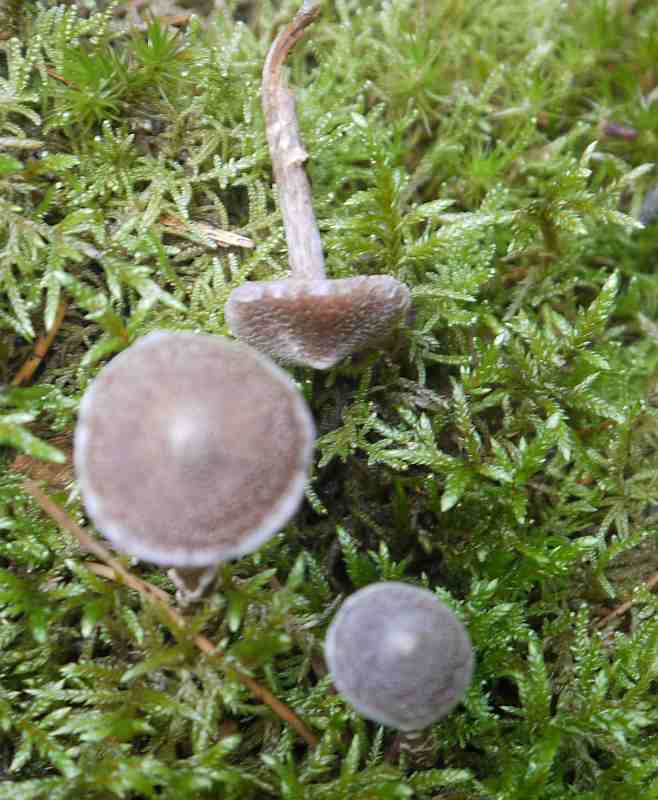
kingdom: Fungi
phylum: Basidiomycota
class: Agaricomycetes
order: Agaricales
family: Cortinariaceae
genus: Cortinarius
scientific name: Cortinarius
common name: pelargonie-slørhat
